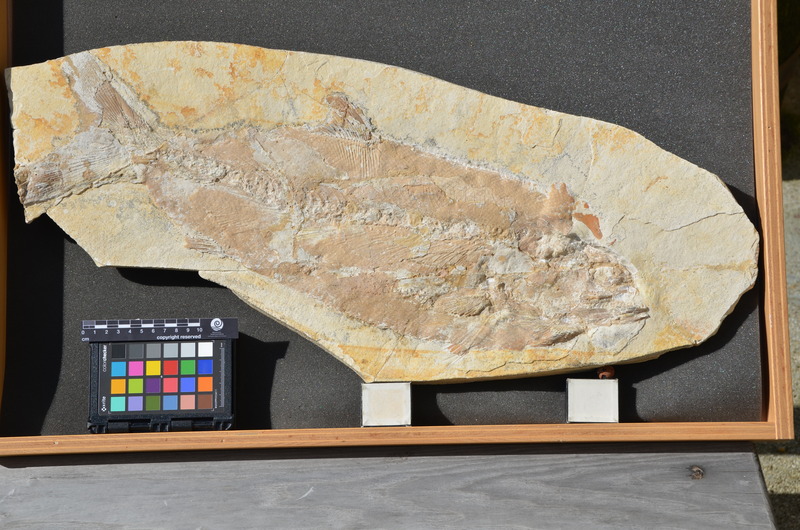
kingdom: Animalia
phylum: Chordata
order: Amiiformes
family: Caturidae
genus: Caturus
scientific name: Caturus
